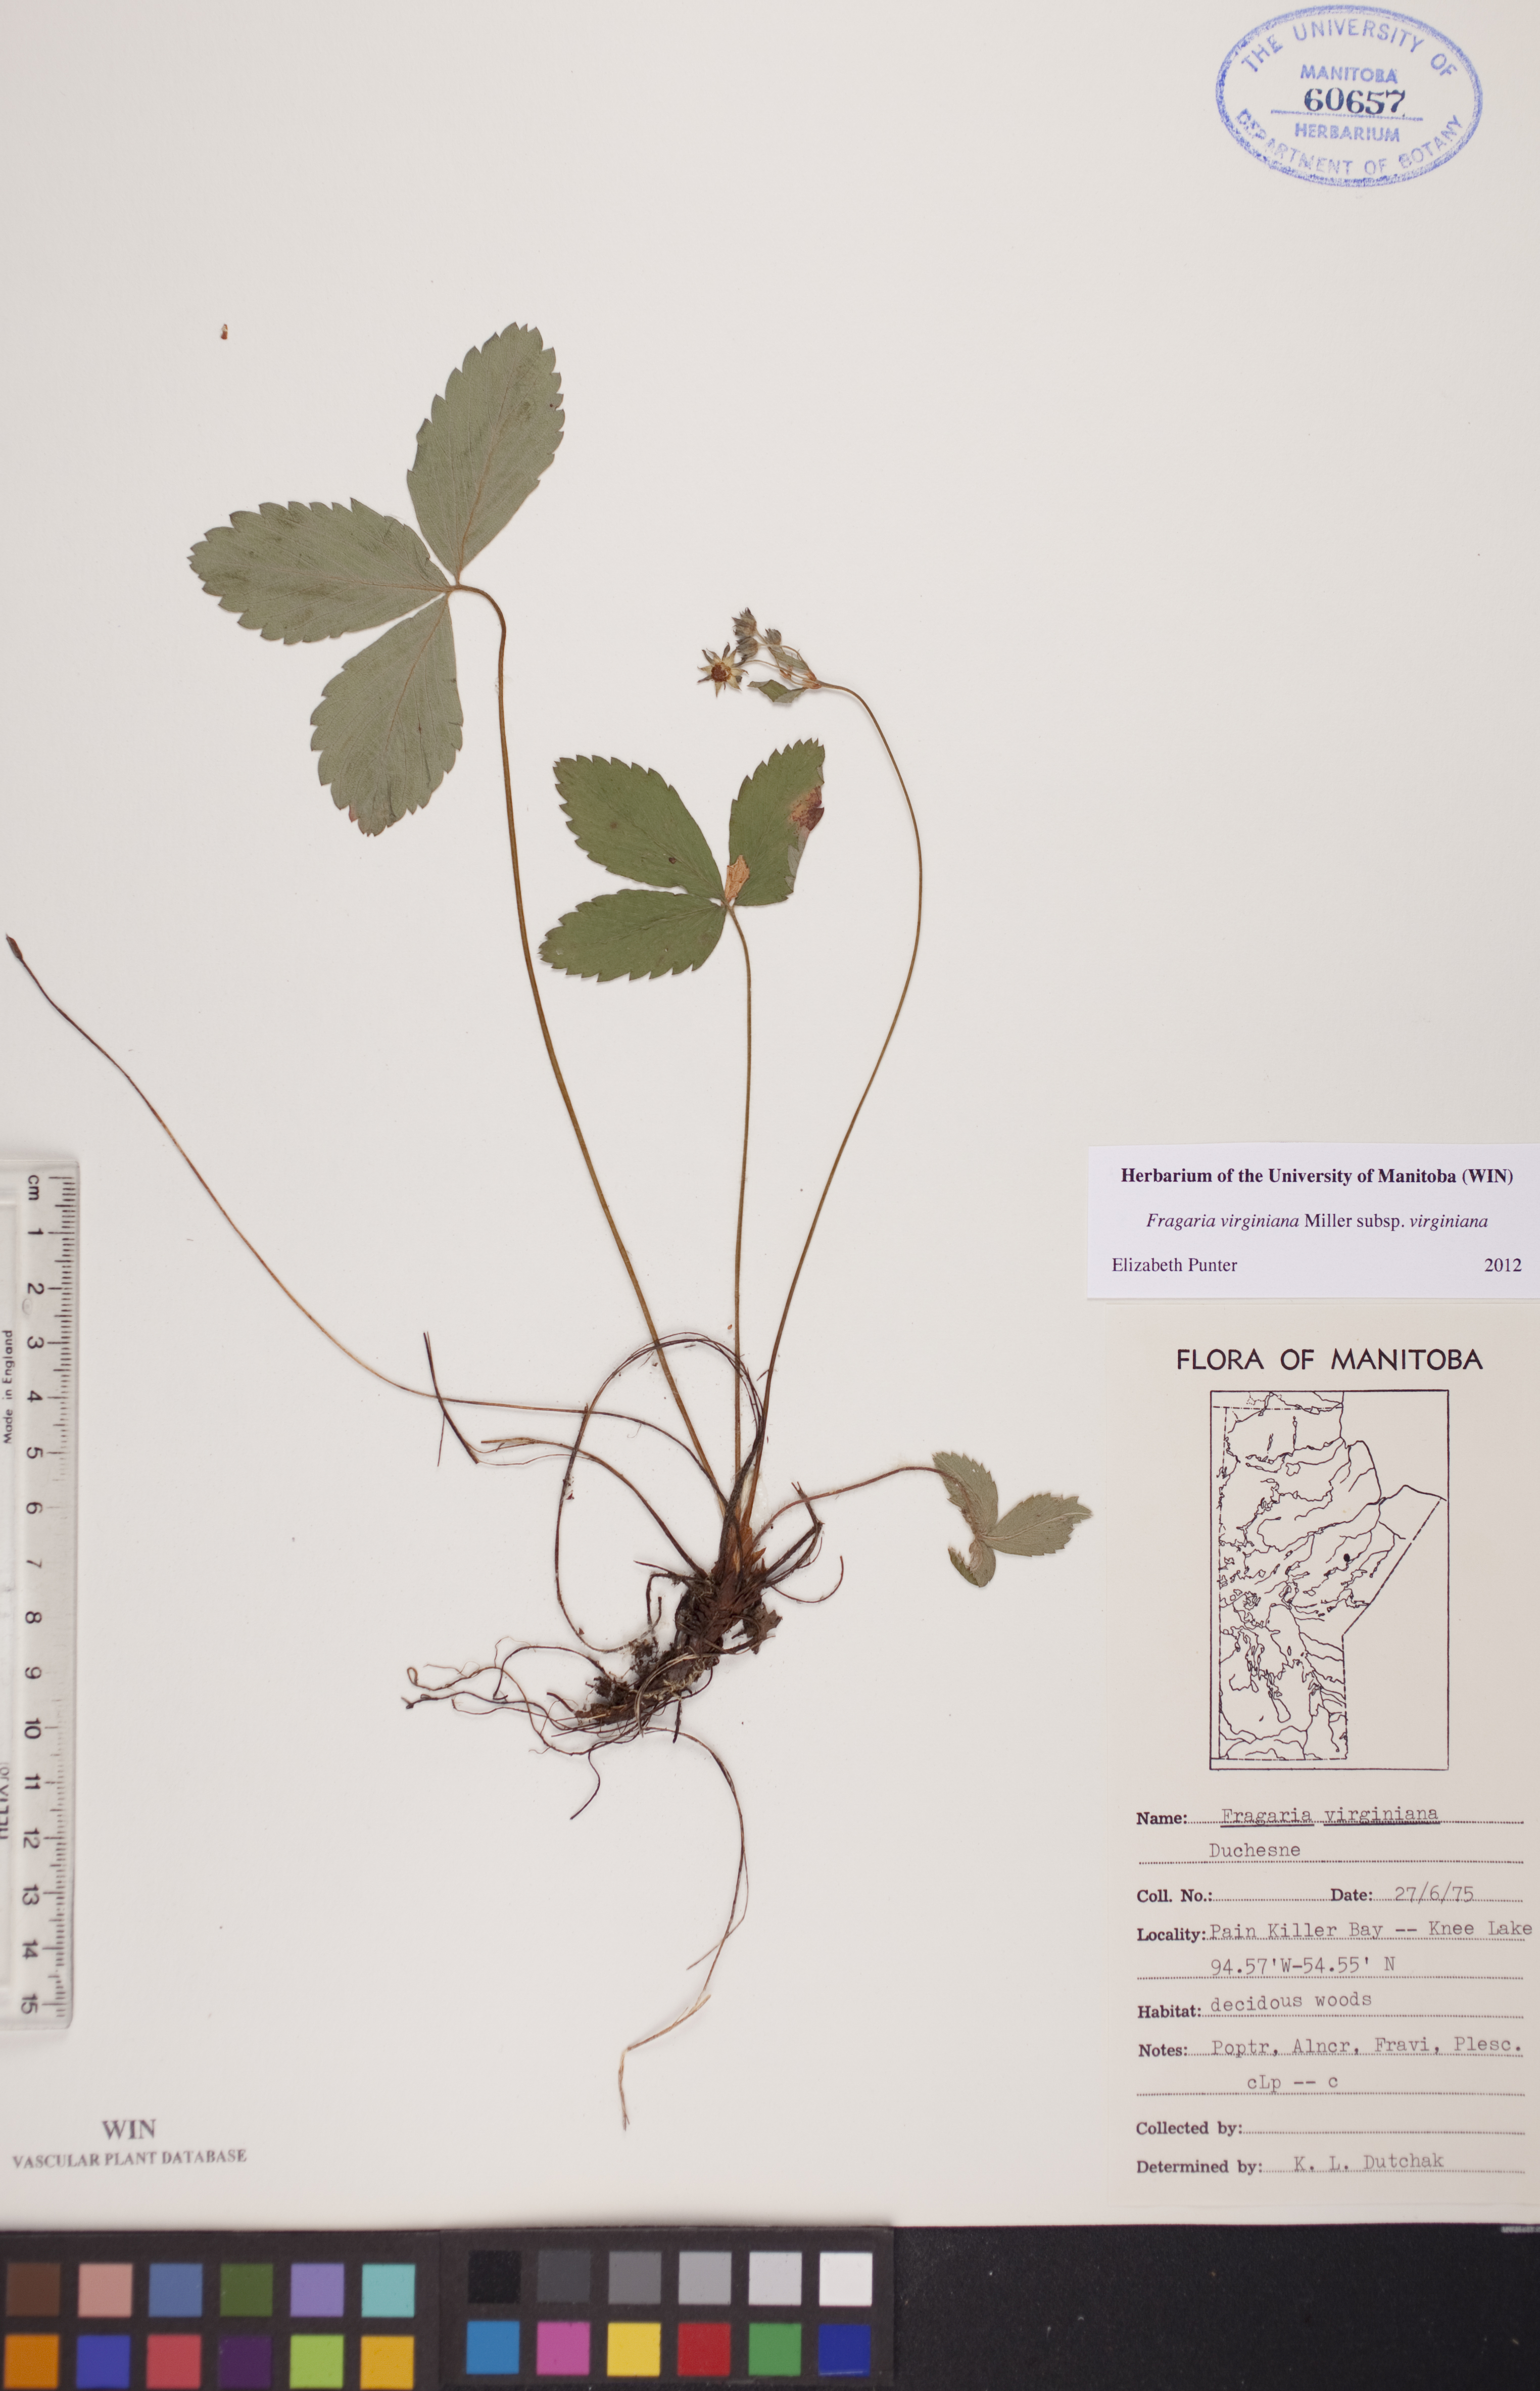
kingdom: Plantae
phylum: Tracheophyta
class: Magnoliopsida
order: Rosales
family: Rosaceae
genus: Fragaria
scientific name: Fragaria virginiana
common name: Thickleaved wild strawberry
